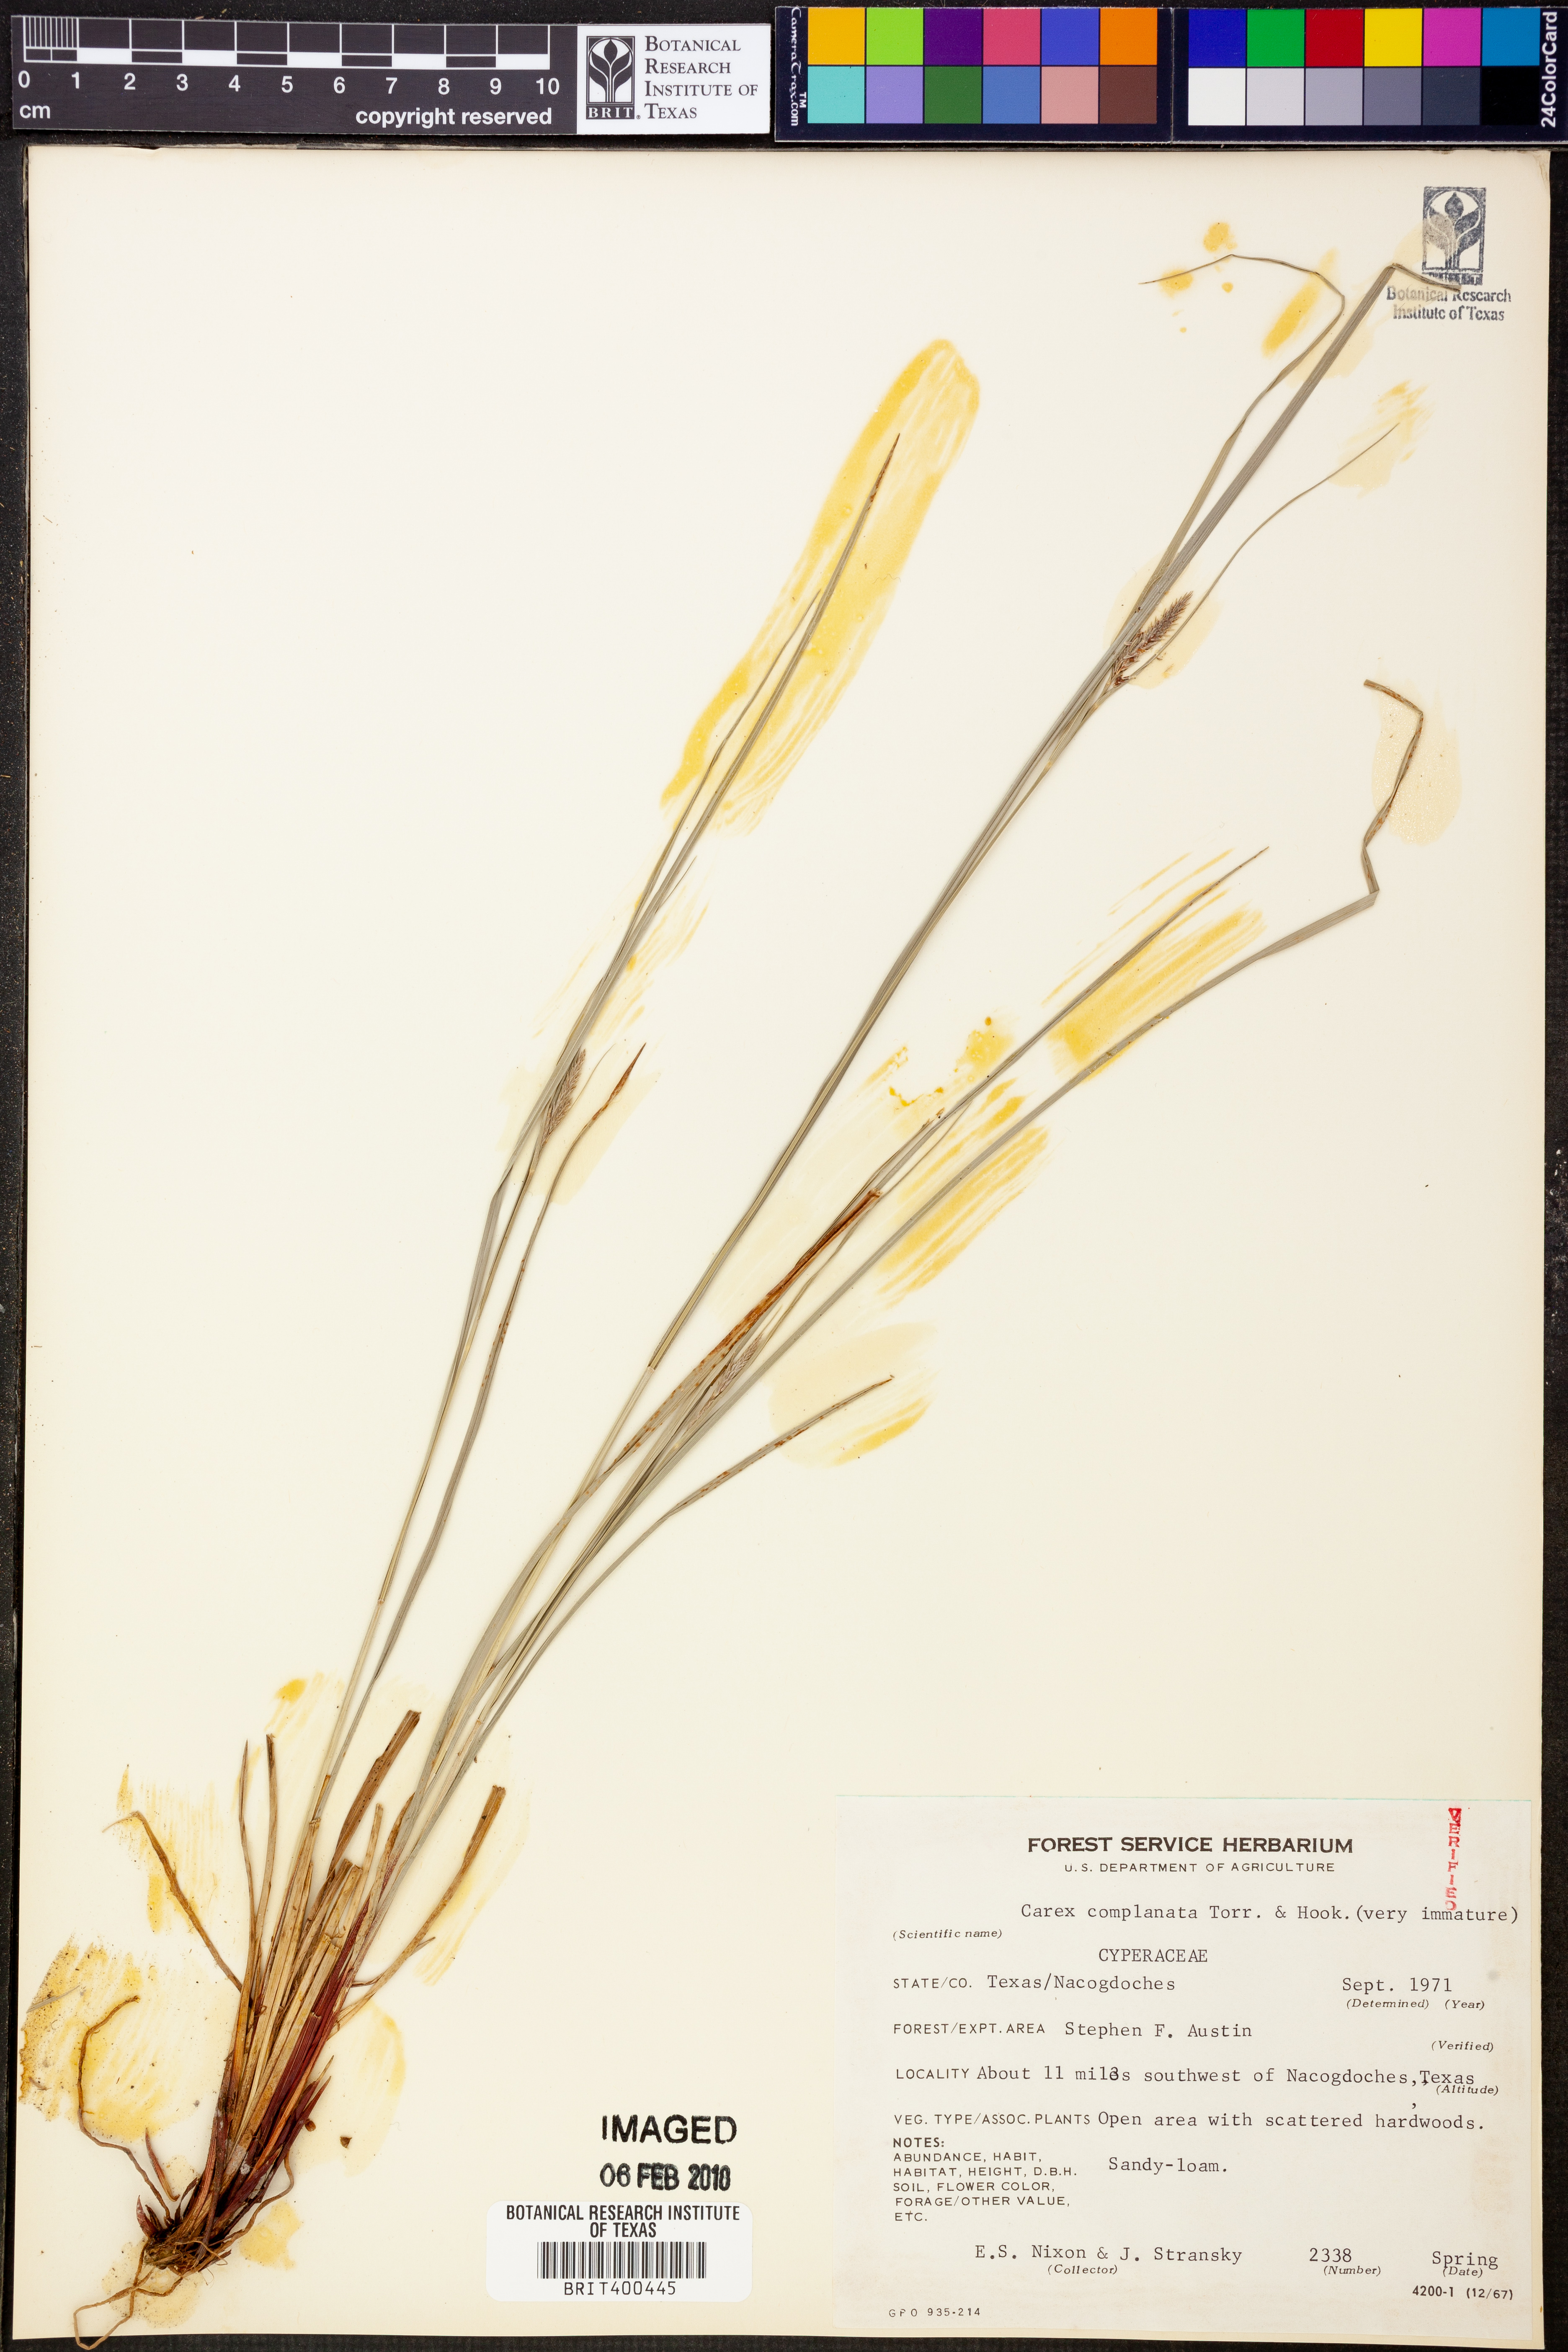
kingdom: Plantae
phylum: Tracheophyta
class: Liliopsida
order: Poales
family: Cyperaceae
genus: Carex
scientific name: Carex complanata
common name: Hirsute sedge
